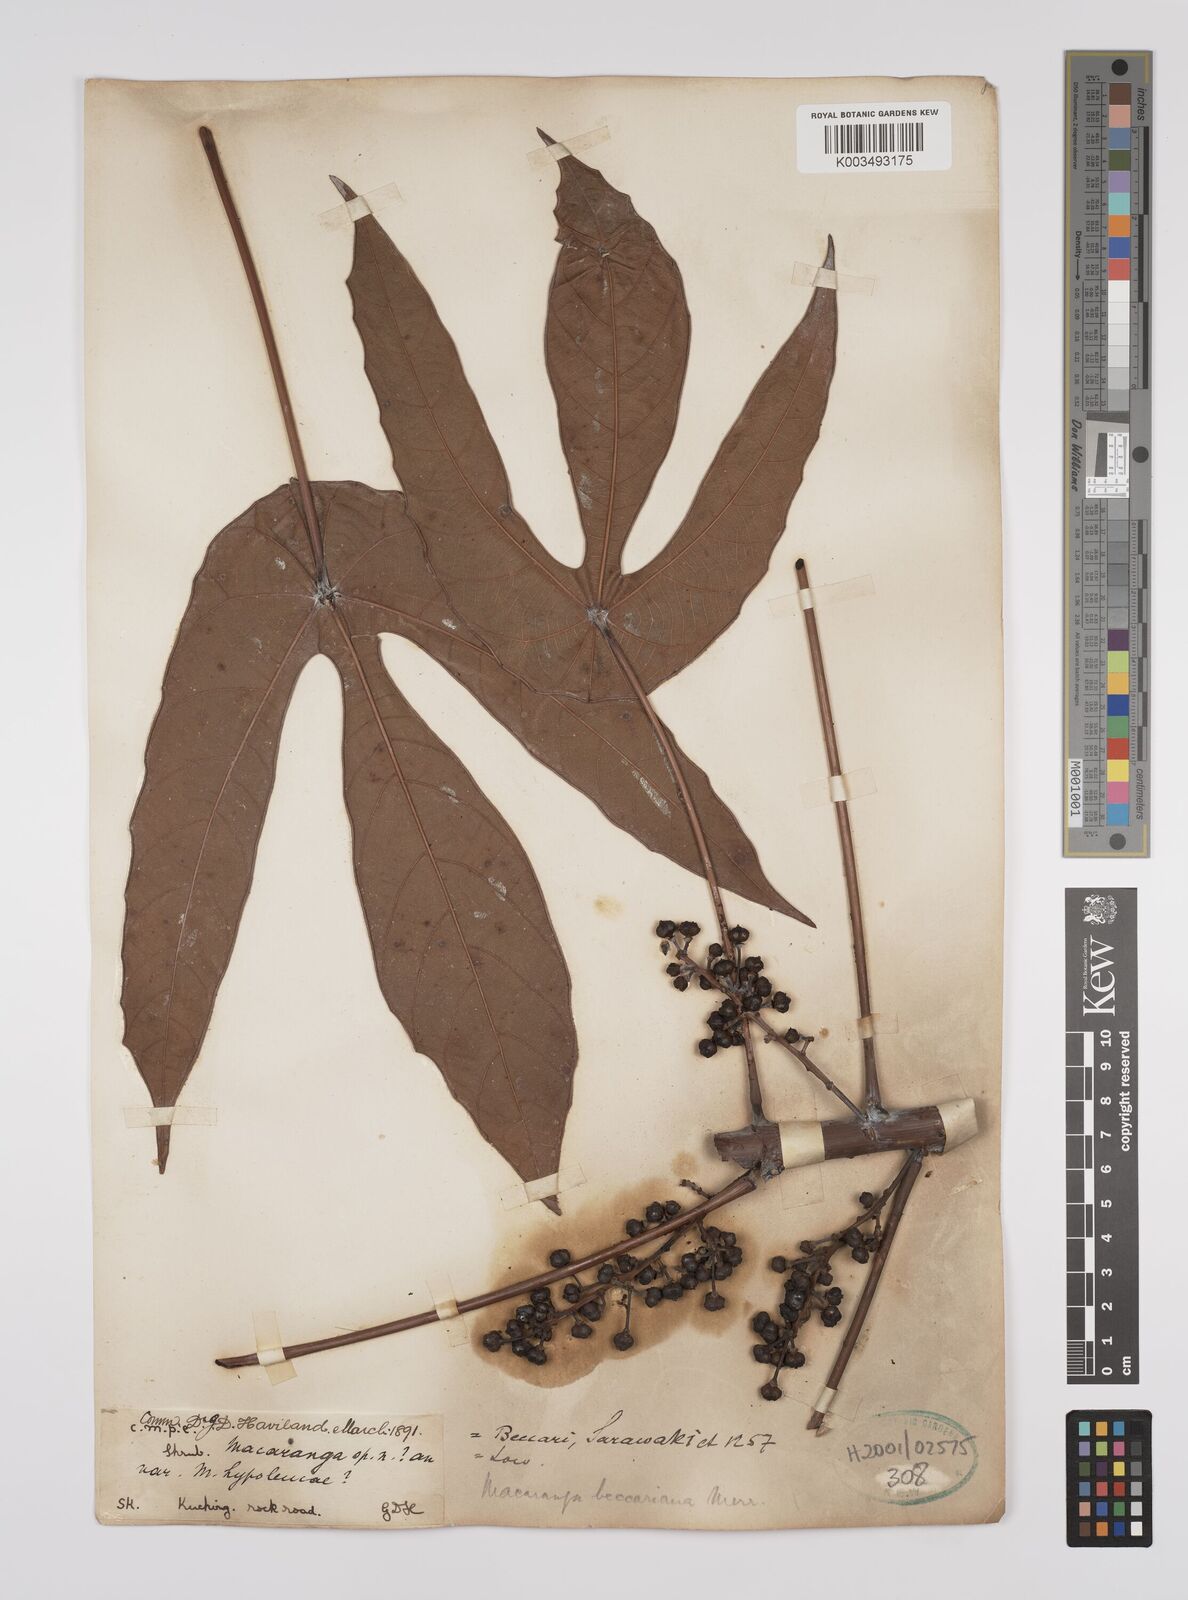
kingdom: Plantae
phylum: Tracheophyta
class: Magnoliopsida
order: Malpighiales
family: Euphorbiaceae
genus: Macaranga
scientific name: Macaranga beccariana
